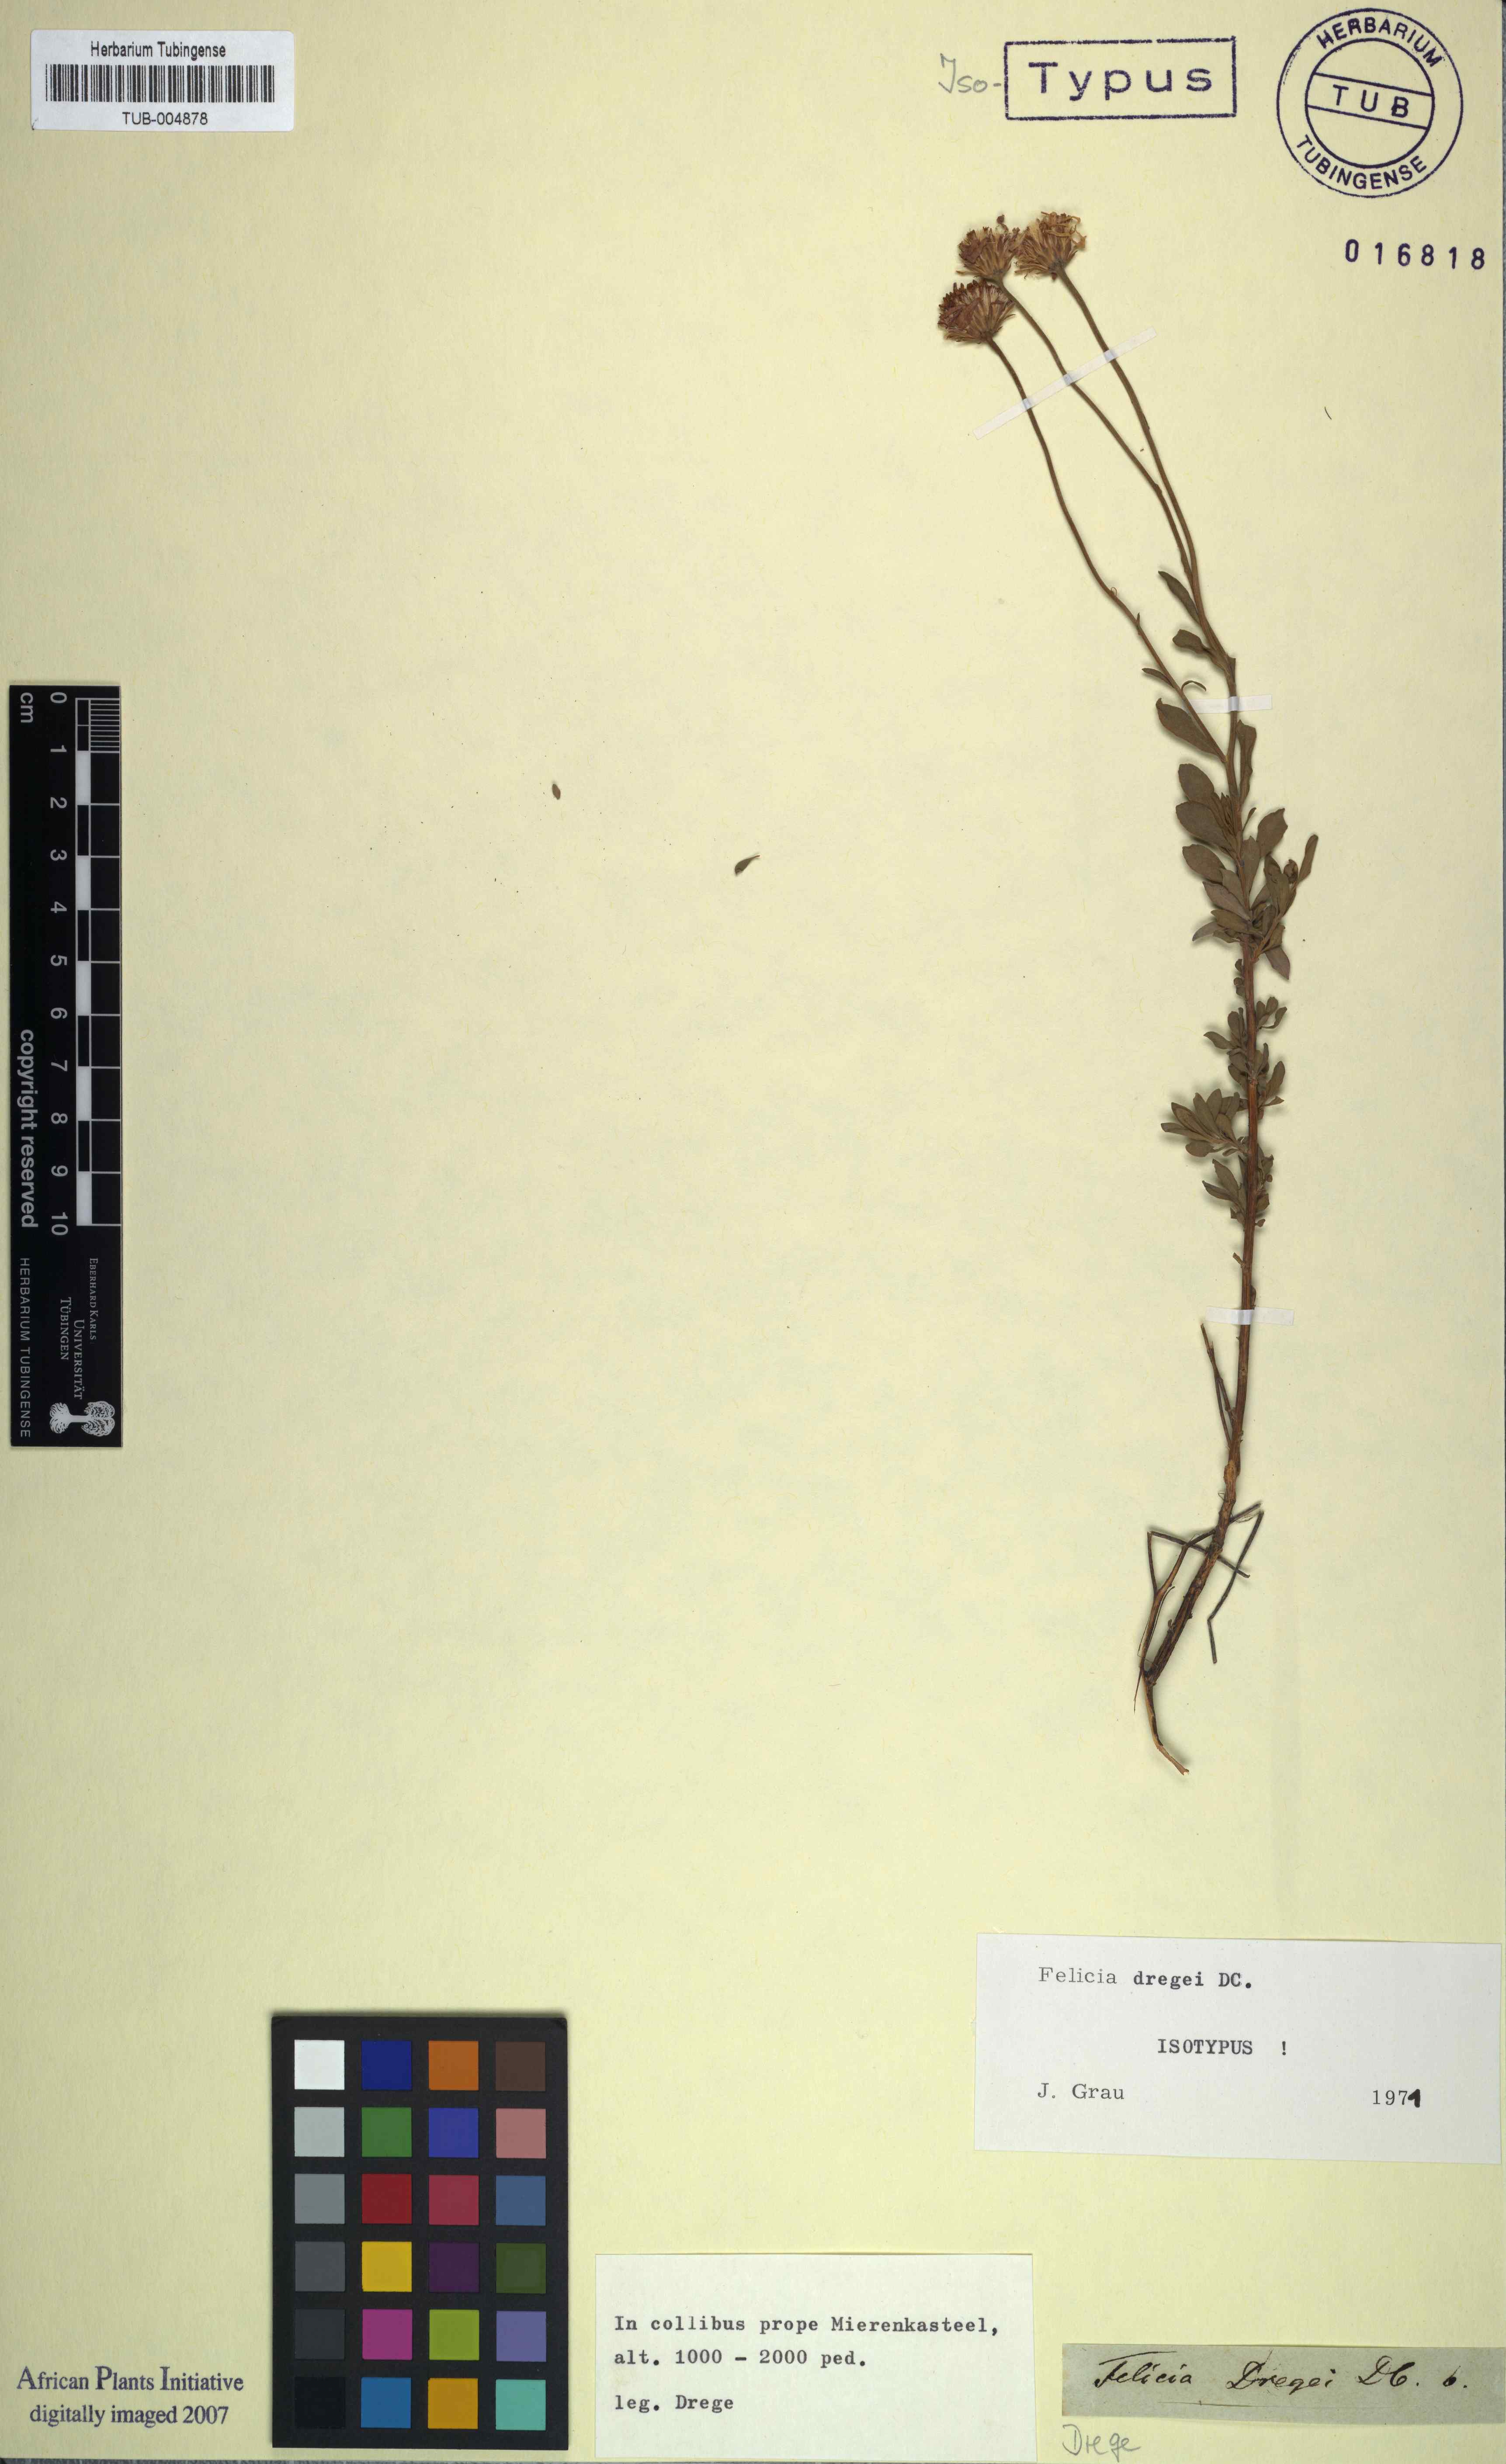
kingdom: Plantae
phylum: Tracheophyta
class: Magnoliopsida
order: Asterales
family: Asteraceae
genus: Felicia
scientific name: Felicia dregei
